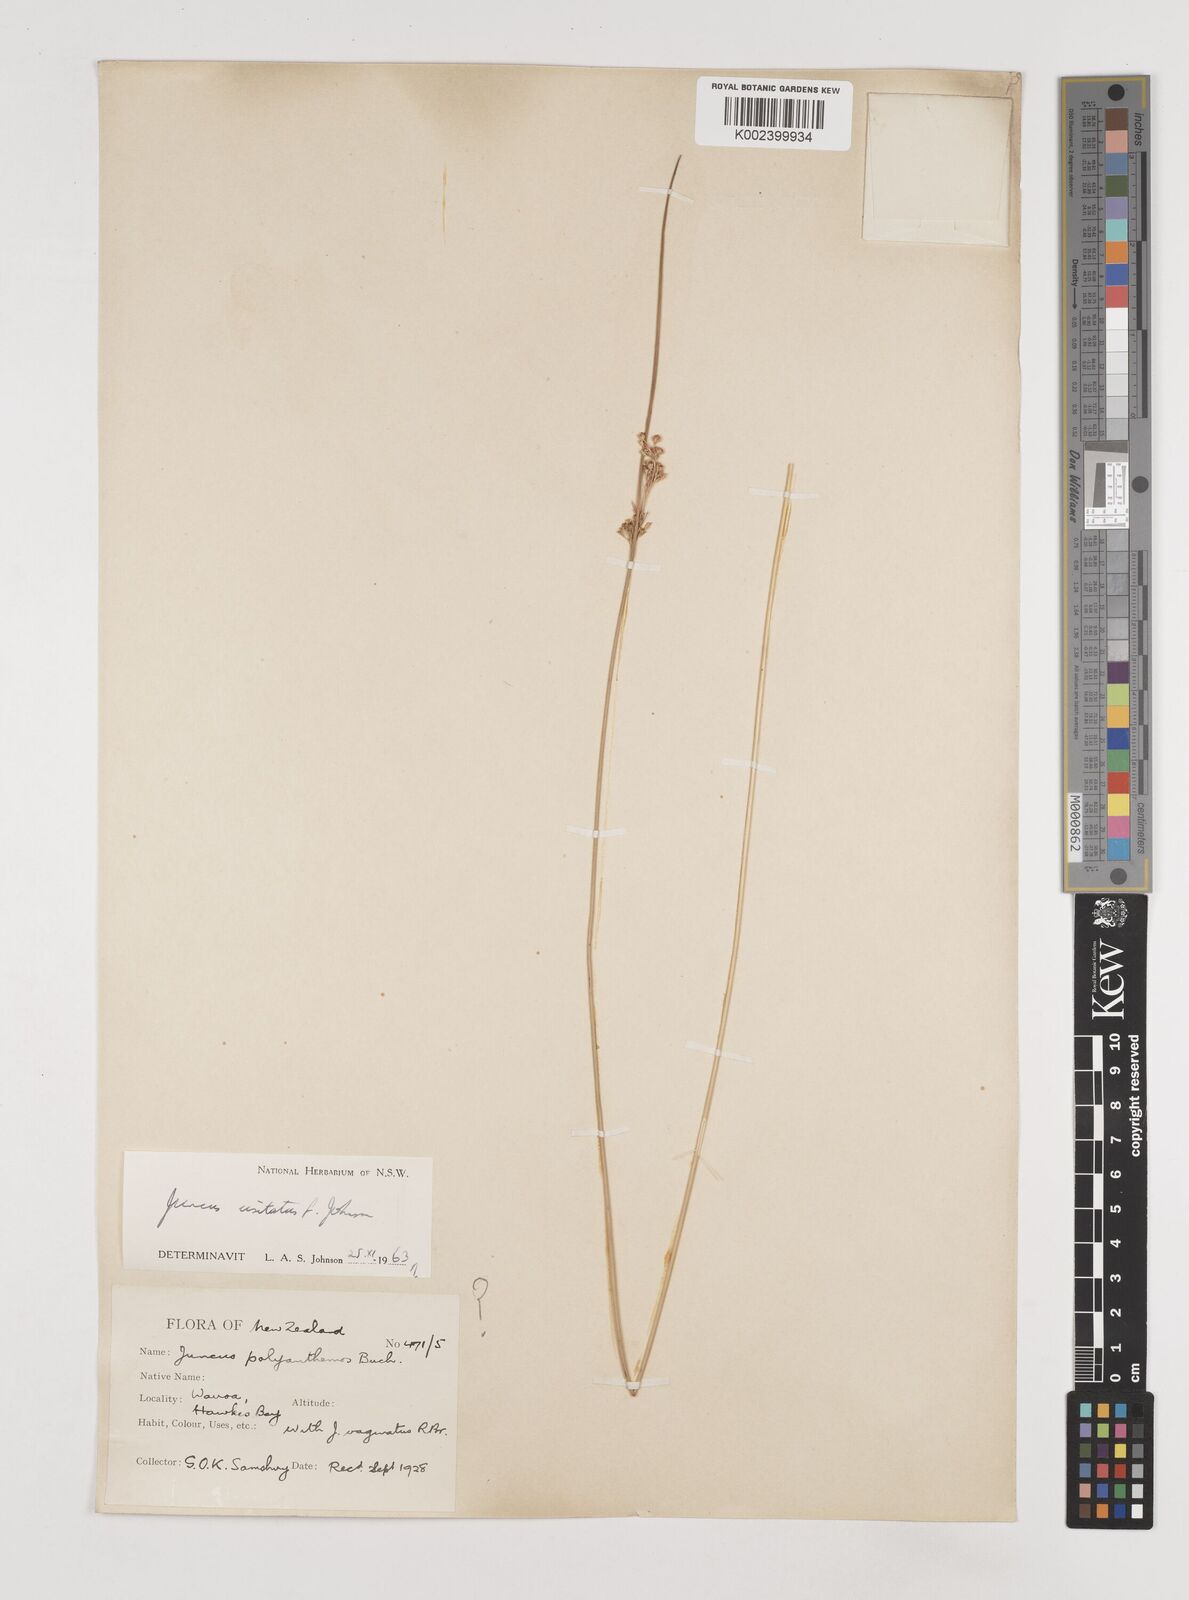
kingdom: Plantae
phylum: Tracheophyta
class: Liliopsida
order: Poales
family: Juncaceae
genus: Juncus
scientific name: Juncus usitatus
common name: Rush
